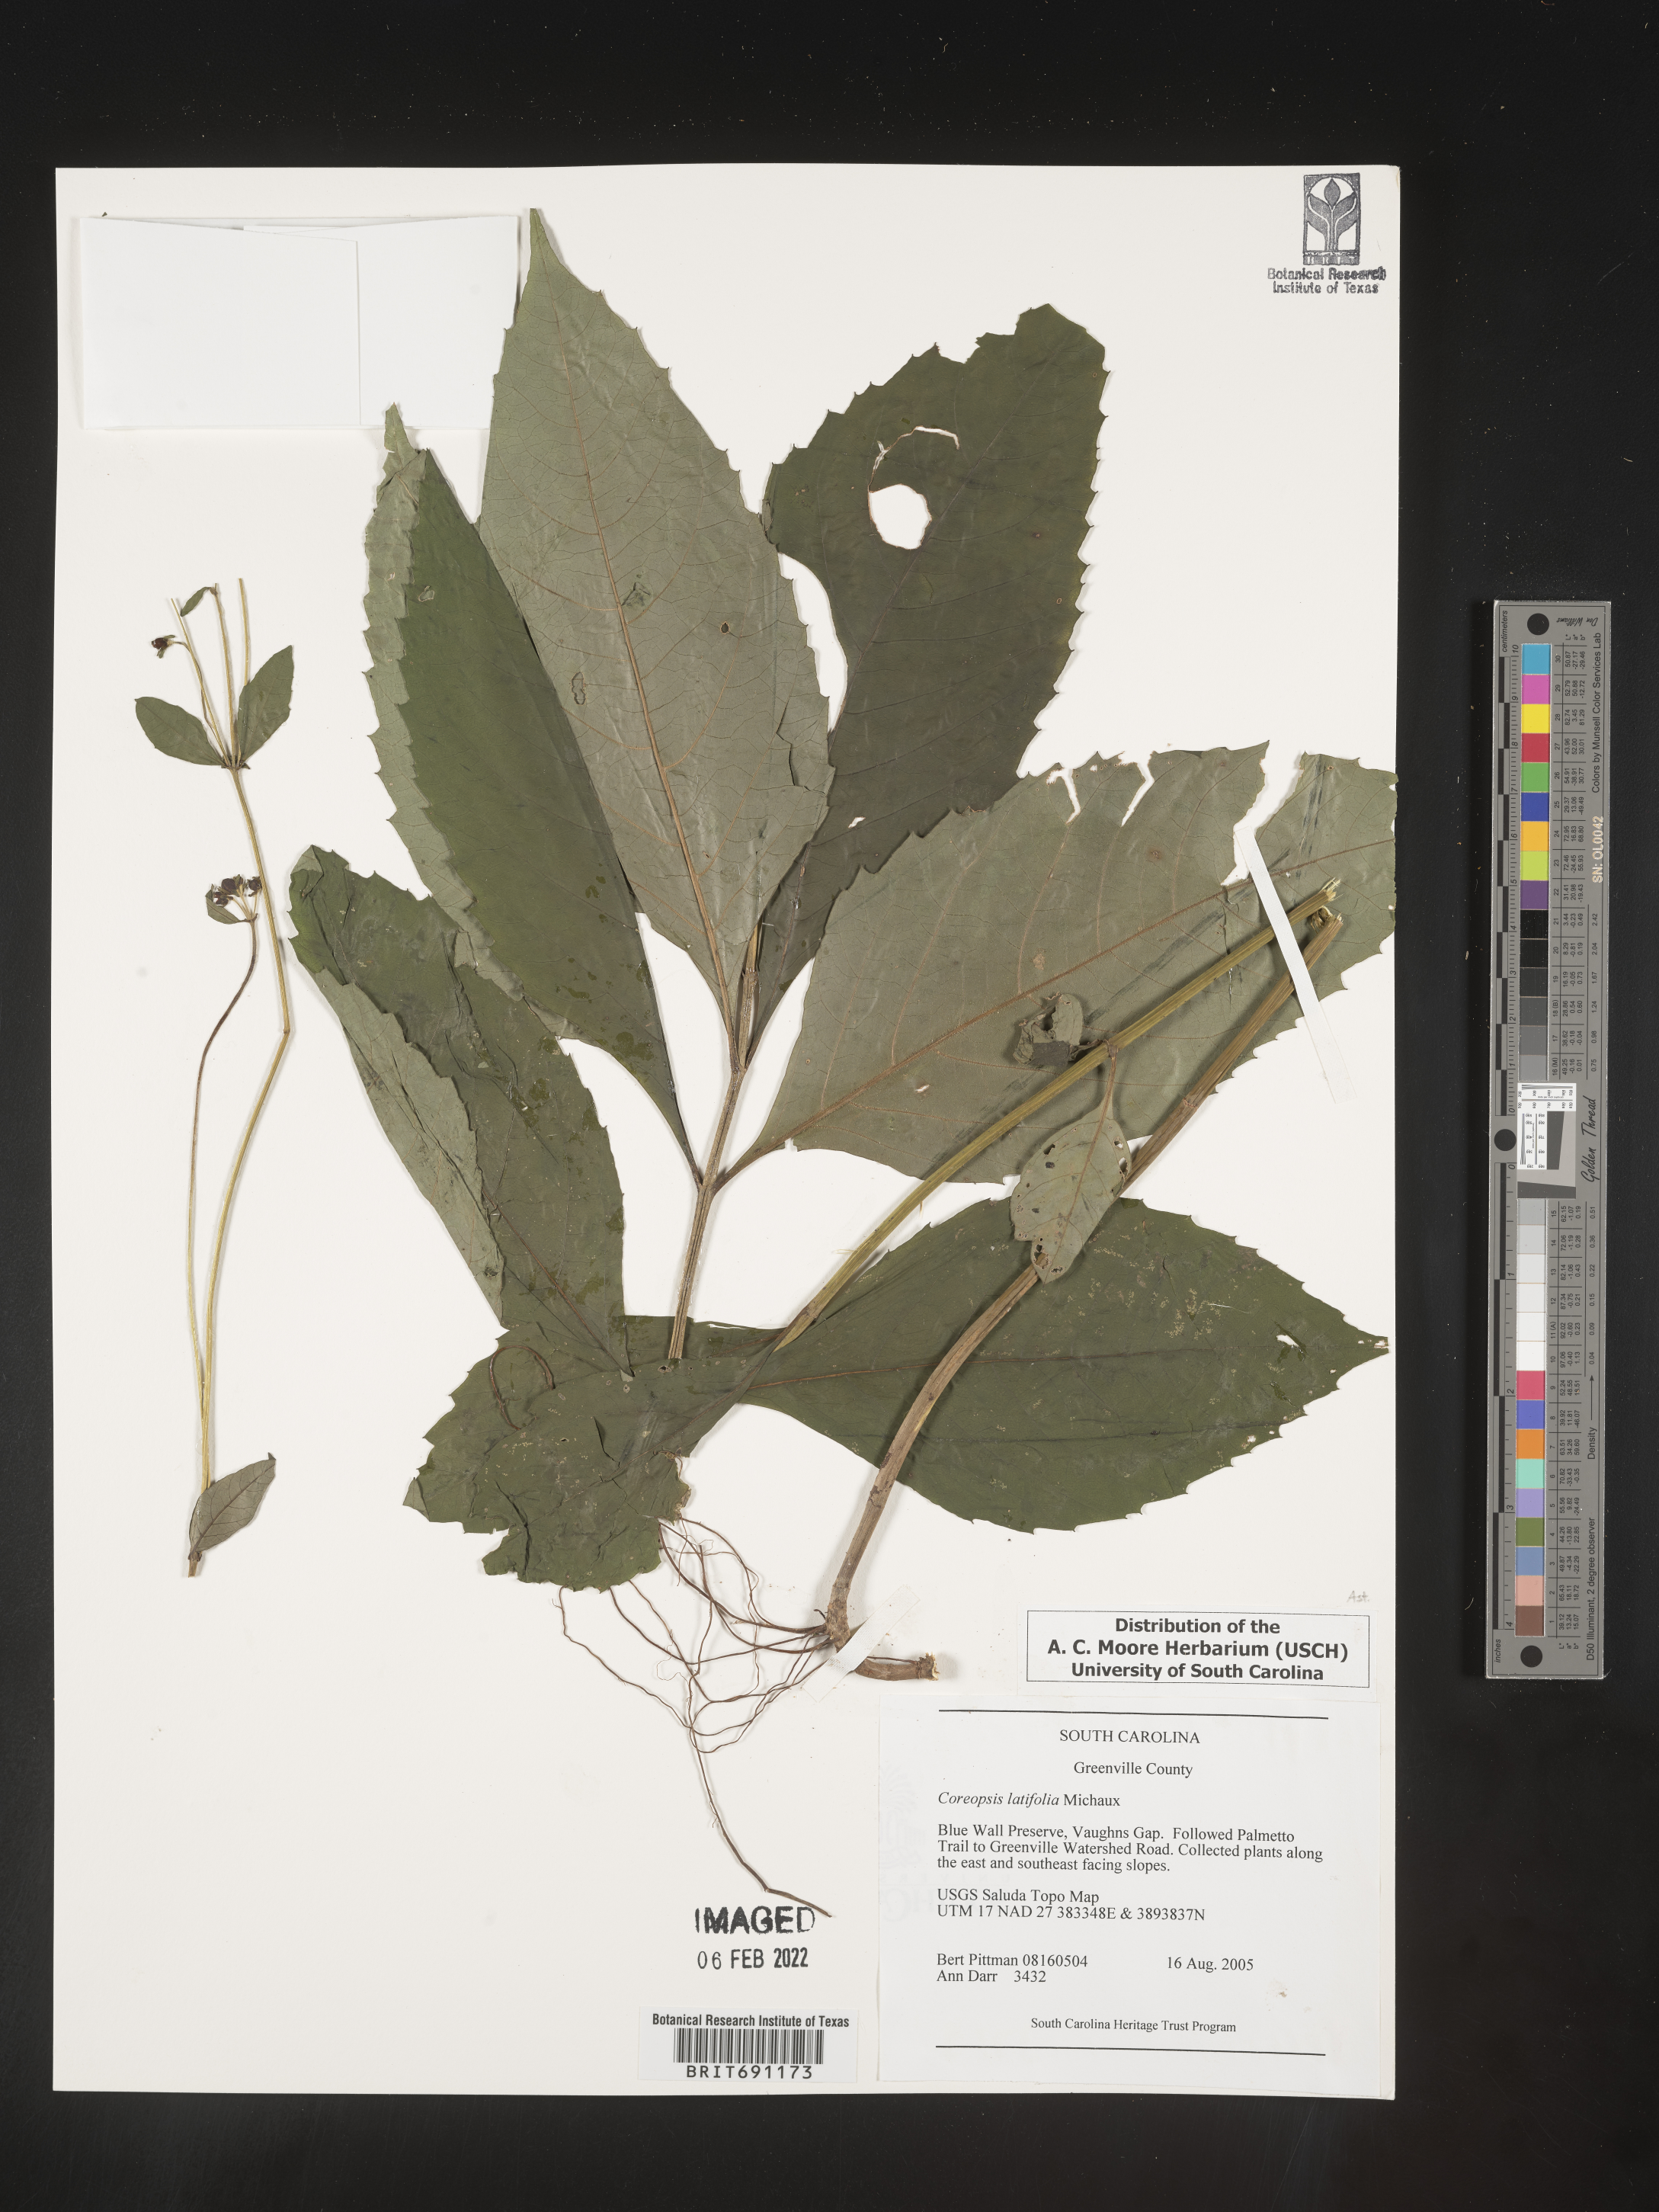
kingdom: Plantae
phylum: Tracheophyta
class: Magnoliopsida
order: Asterales
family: Asteraceae
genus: Coreopsis
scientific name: Coreopsis latifolia
